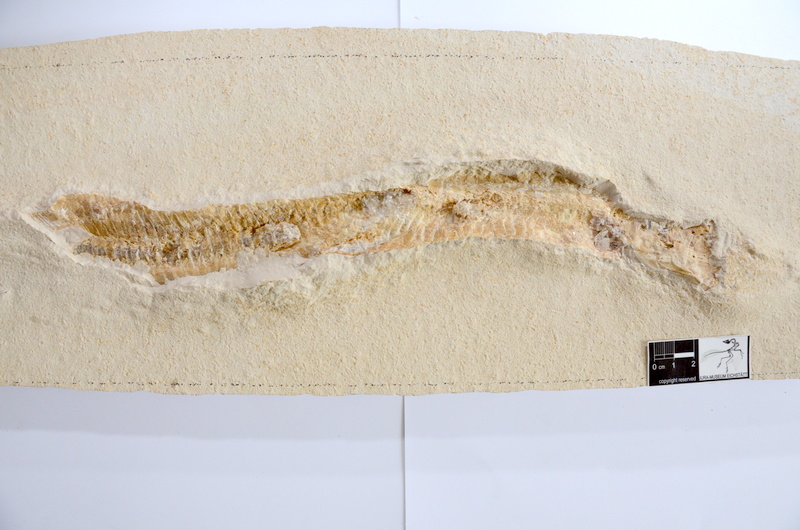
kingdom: Animalia
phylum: Chordata
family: Aspidorhynchidae
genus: Aspidorhynchus
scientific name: Aspidorhynchus acutirostris
